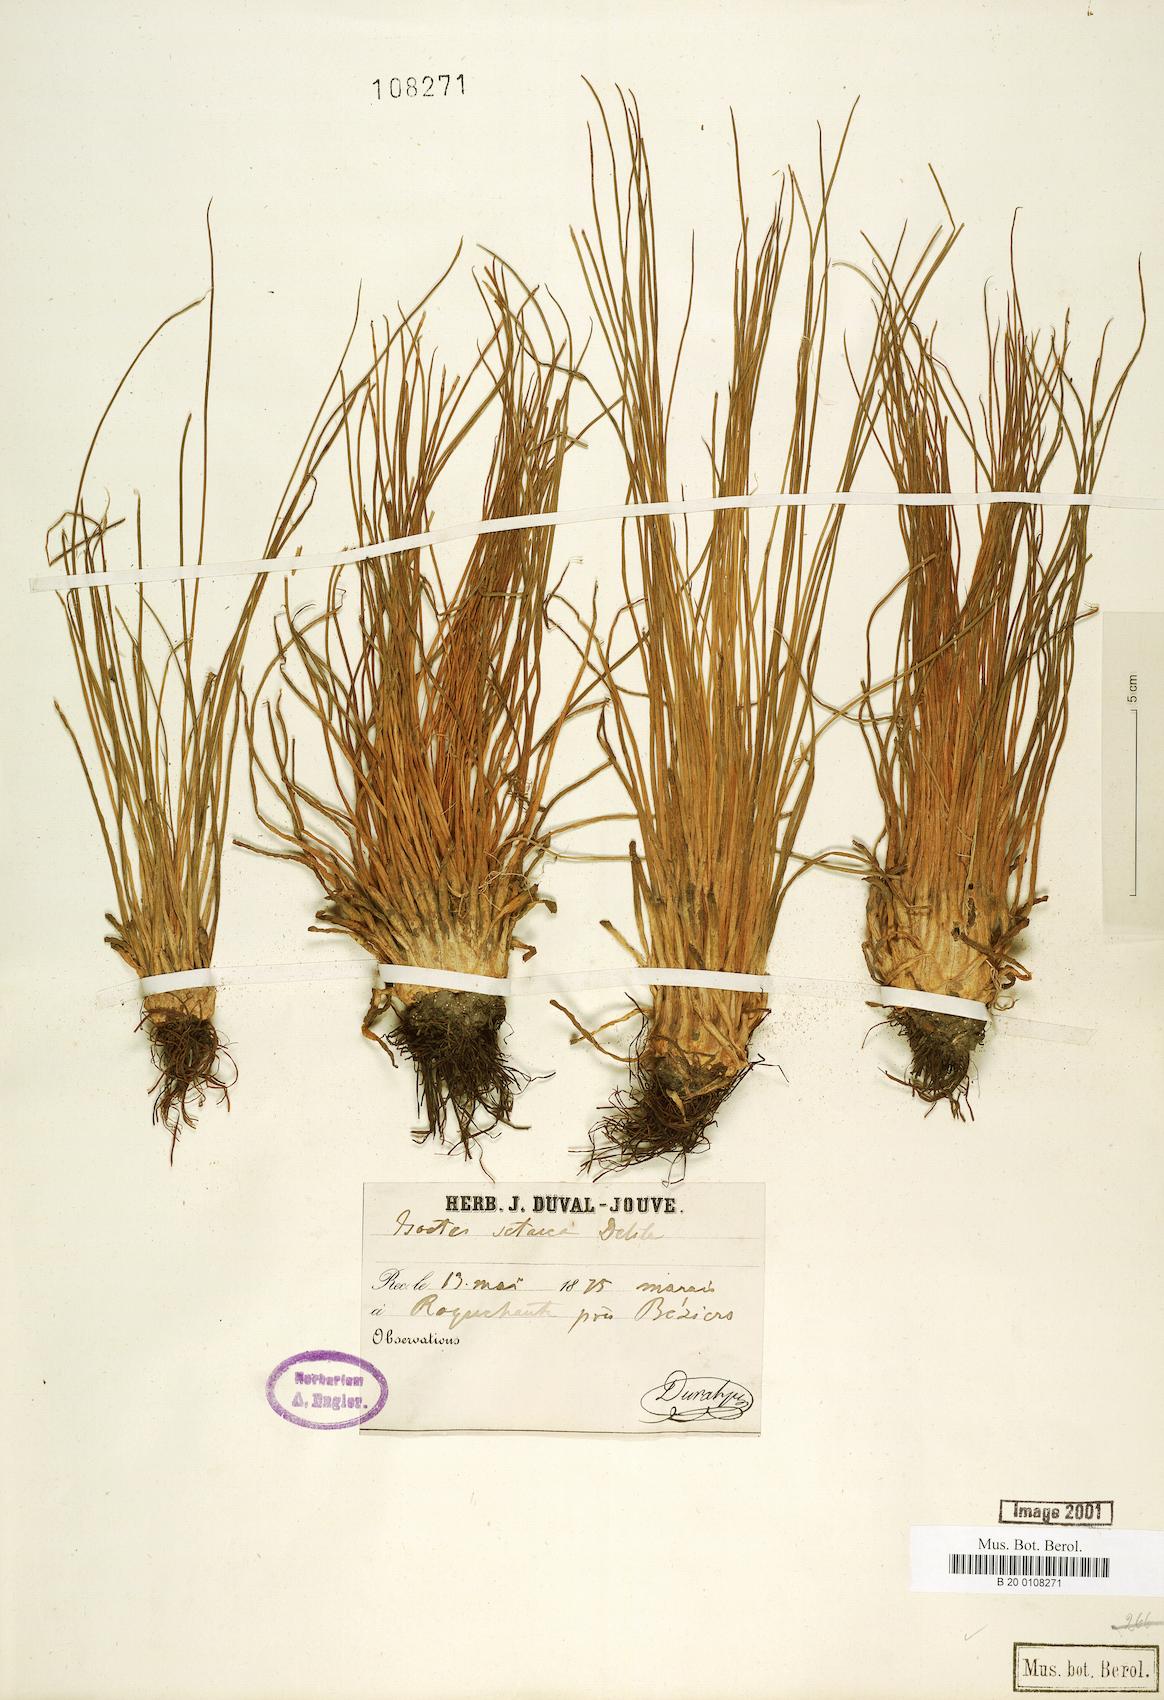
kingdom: Plantae
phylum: Tracheophyta
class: Lycopodiopsida
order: Isoetales
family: Isoetaceae
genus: Isoetes
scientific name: Isoetes lacustris
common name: Common quillwort
